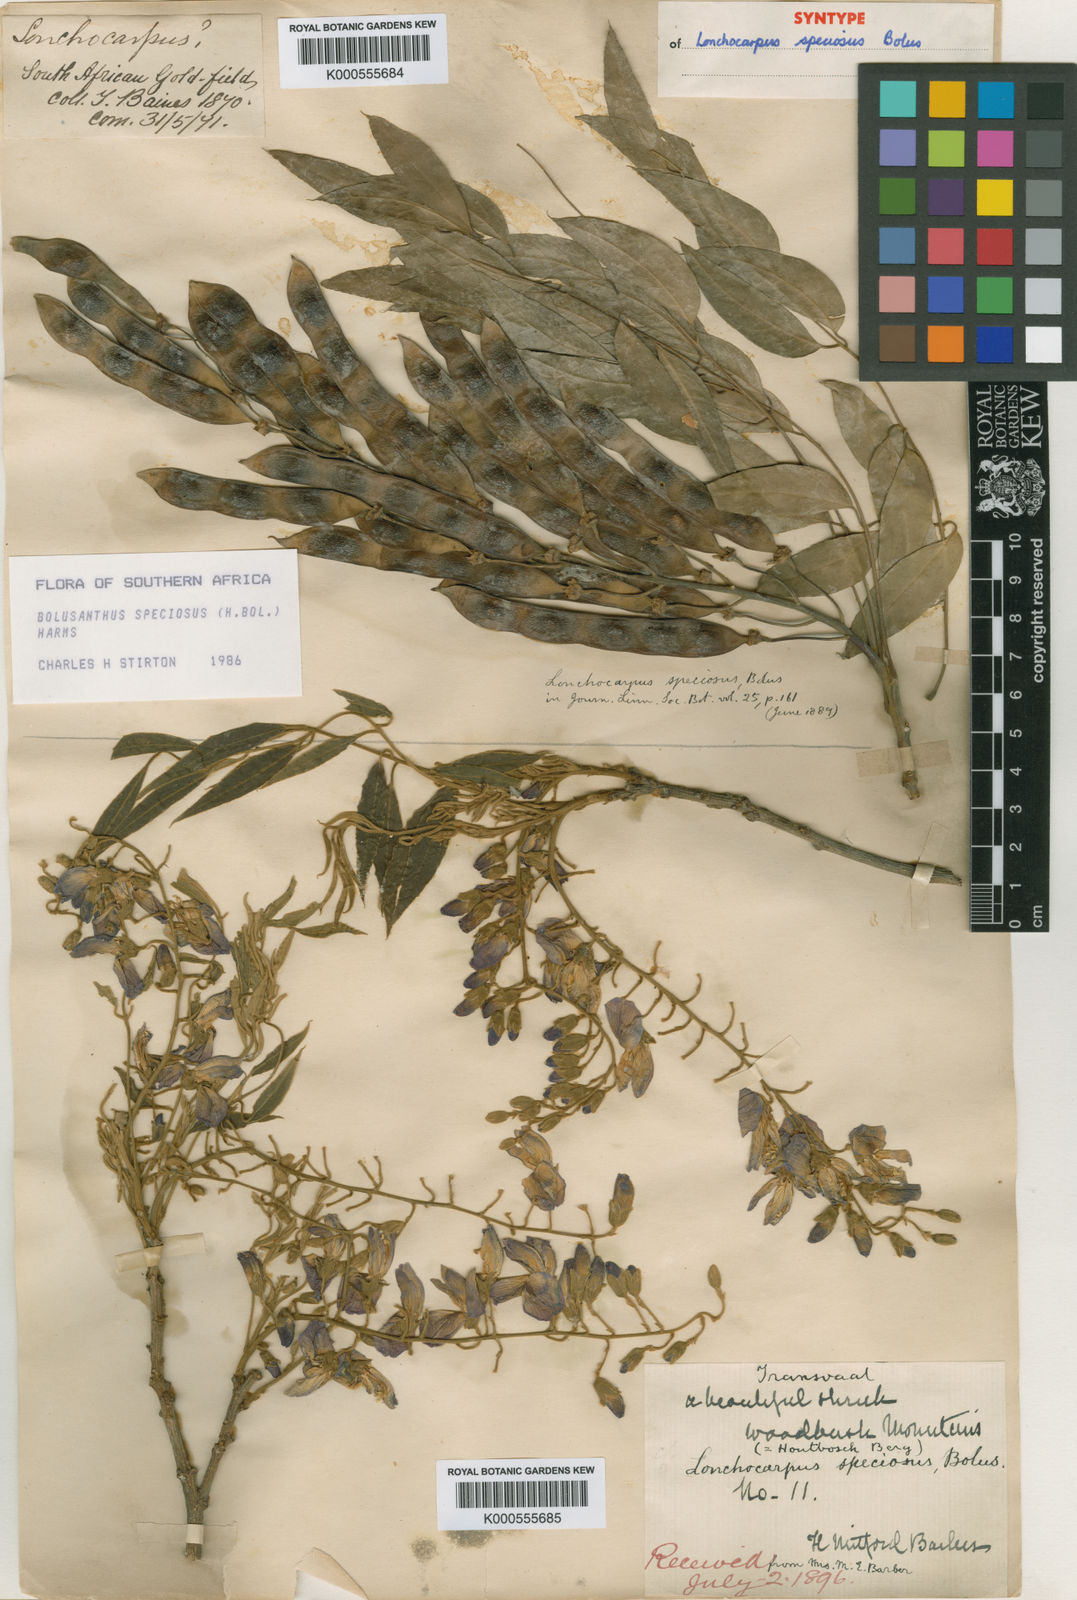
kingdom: Plantae
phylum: Tracheophyta
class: Magnoliopsida
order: Fabales
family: Fabaceae
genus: Bolusanthus
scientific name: Bolusanthus speciosus
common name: Tree wisteria
